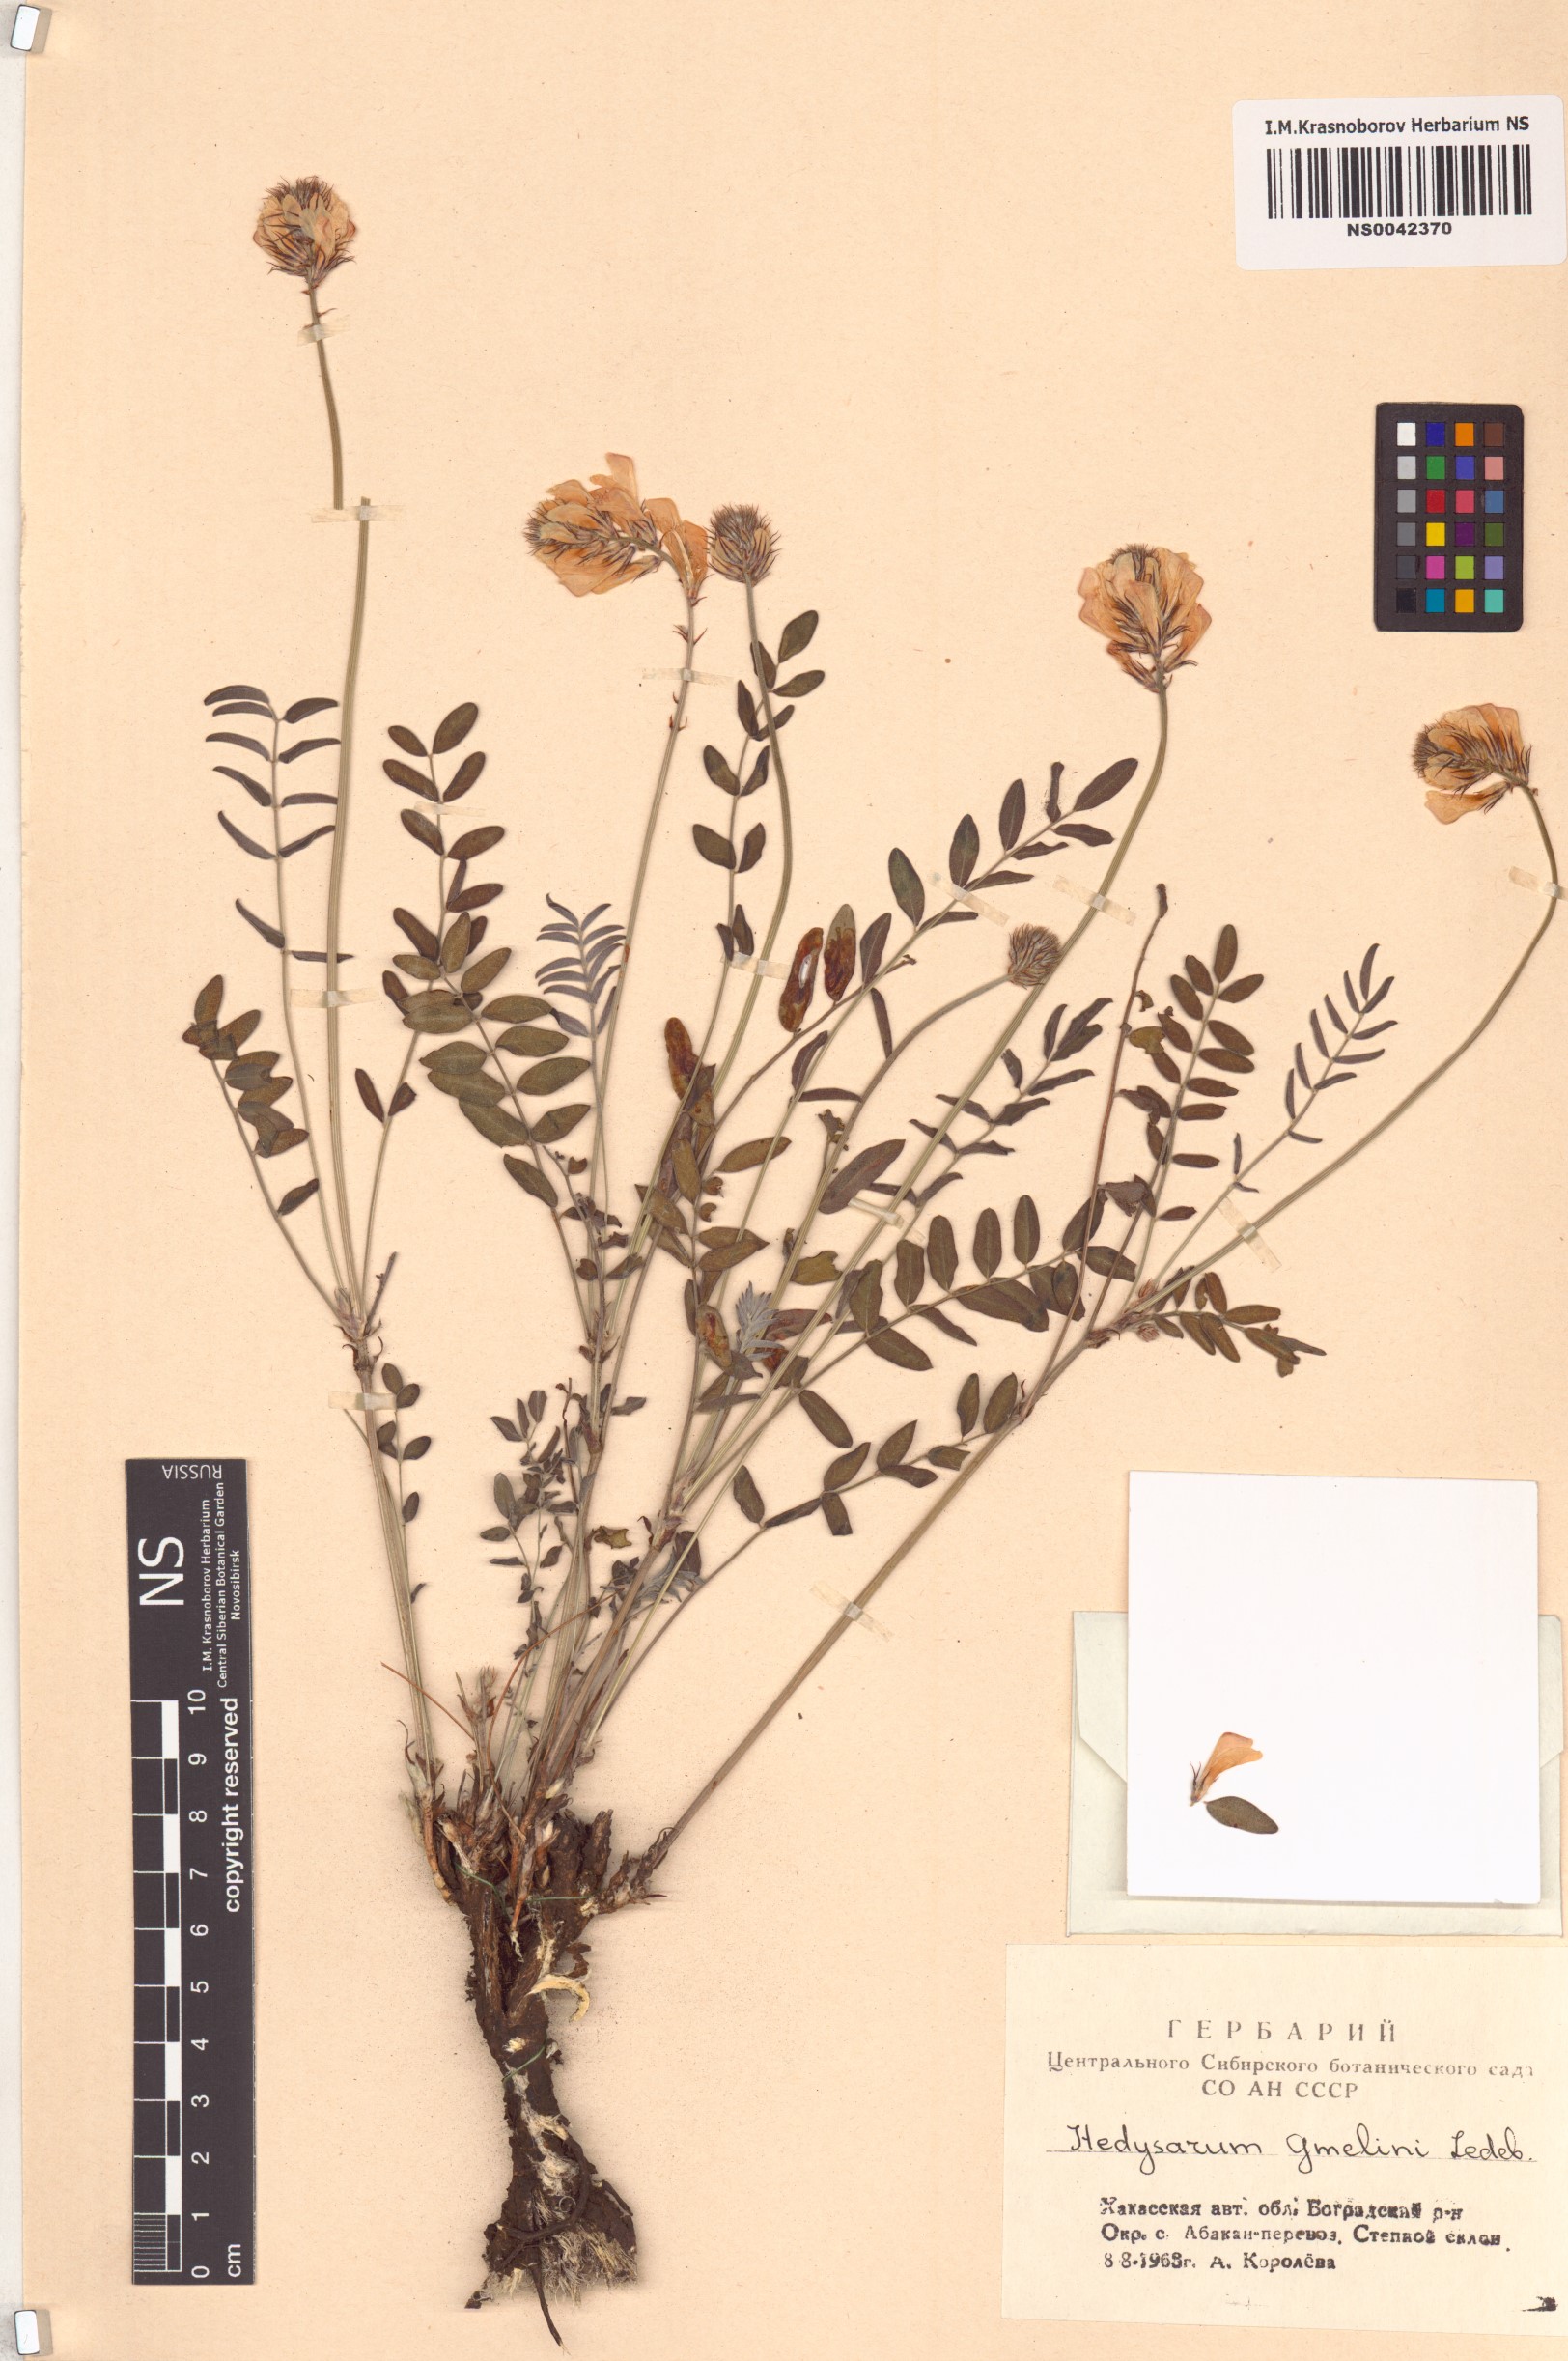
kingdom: Plantae
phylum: Tracheophyta
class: Magnoliopsida
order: Fabales
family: Fabaceae
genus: Hedysarum
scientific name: Hedysarum gmelinii
